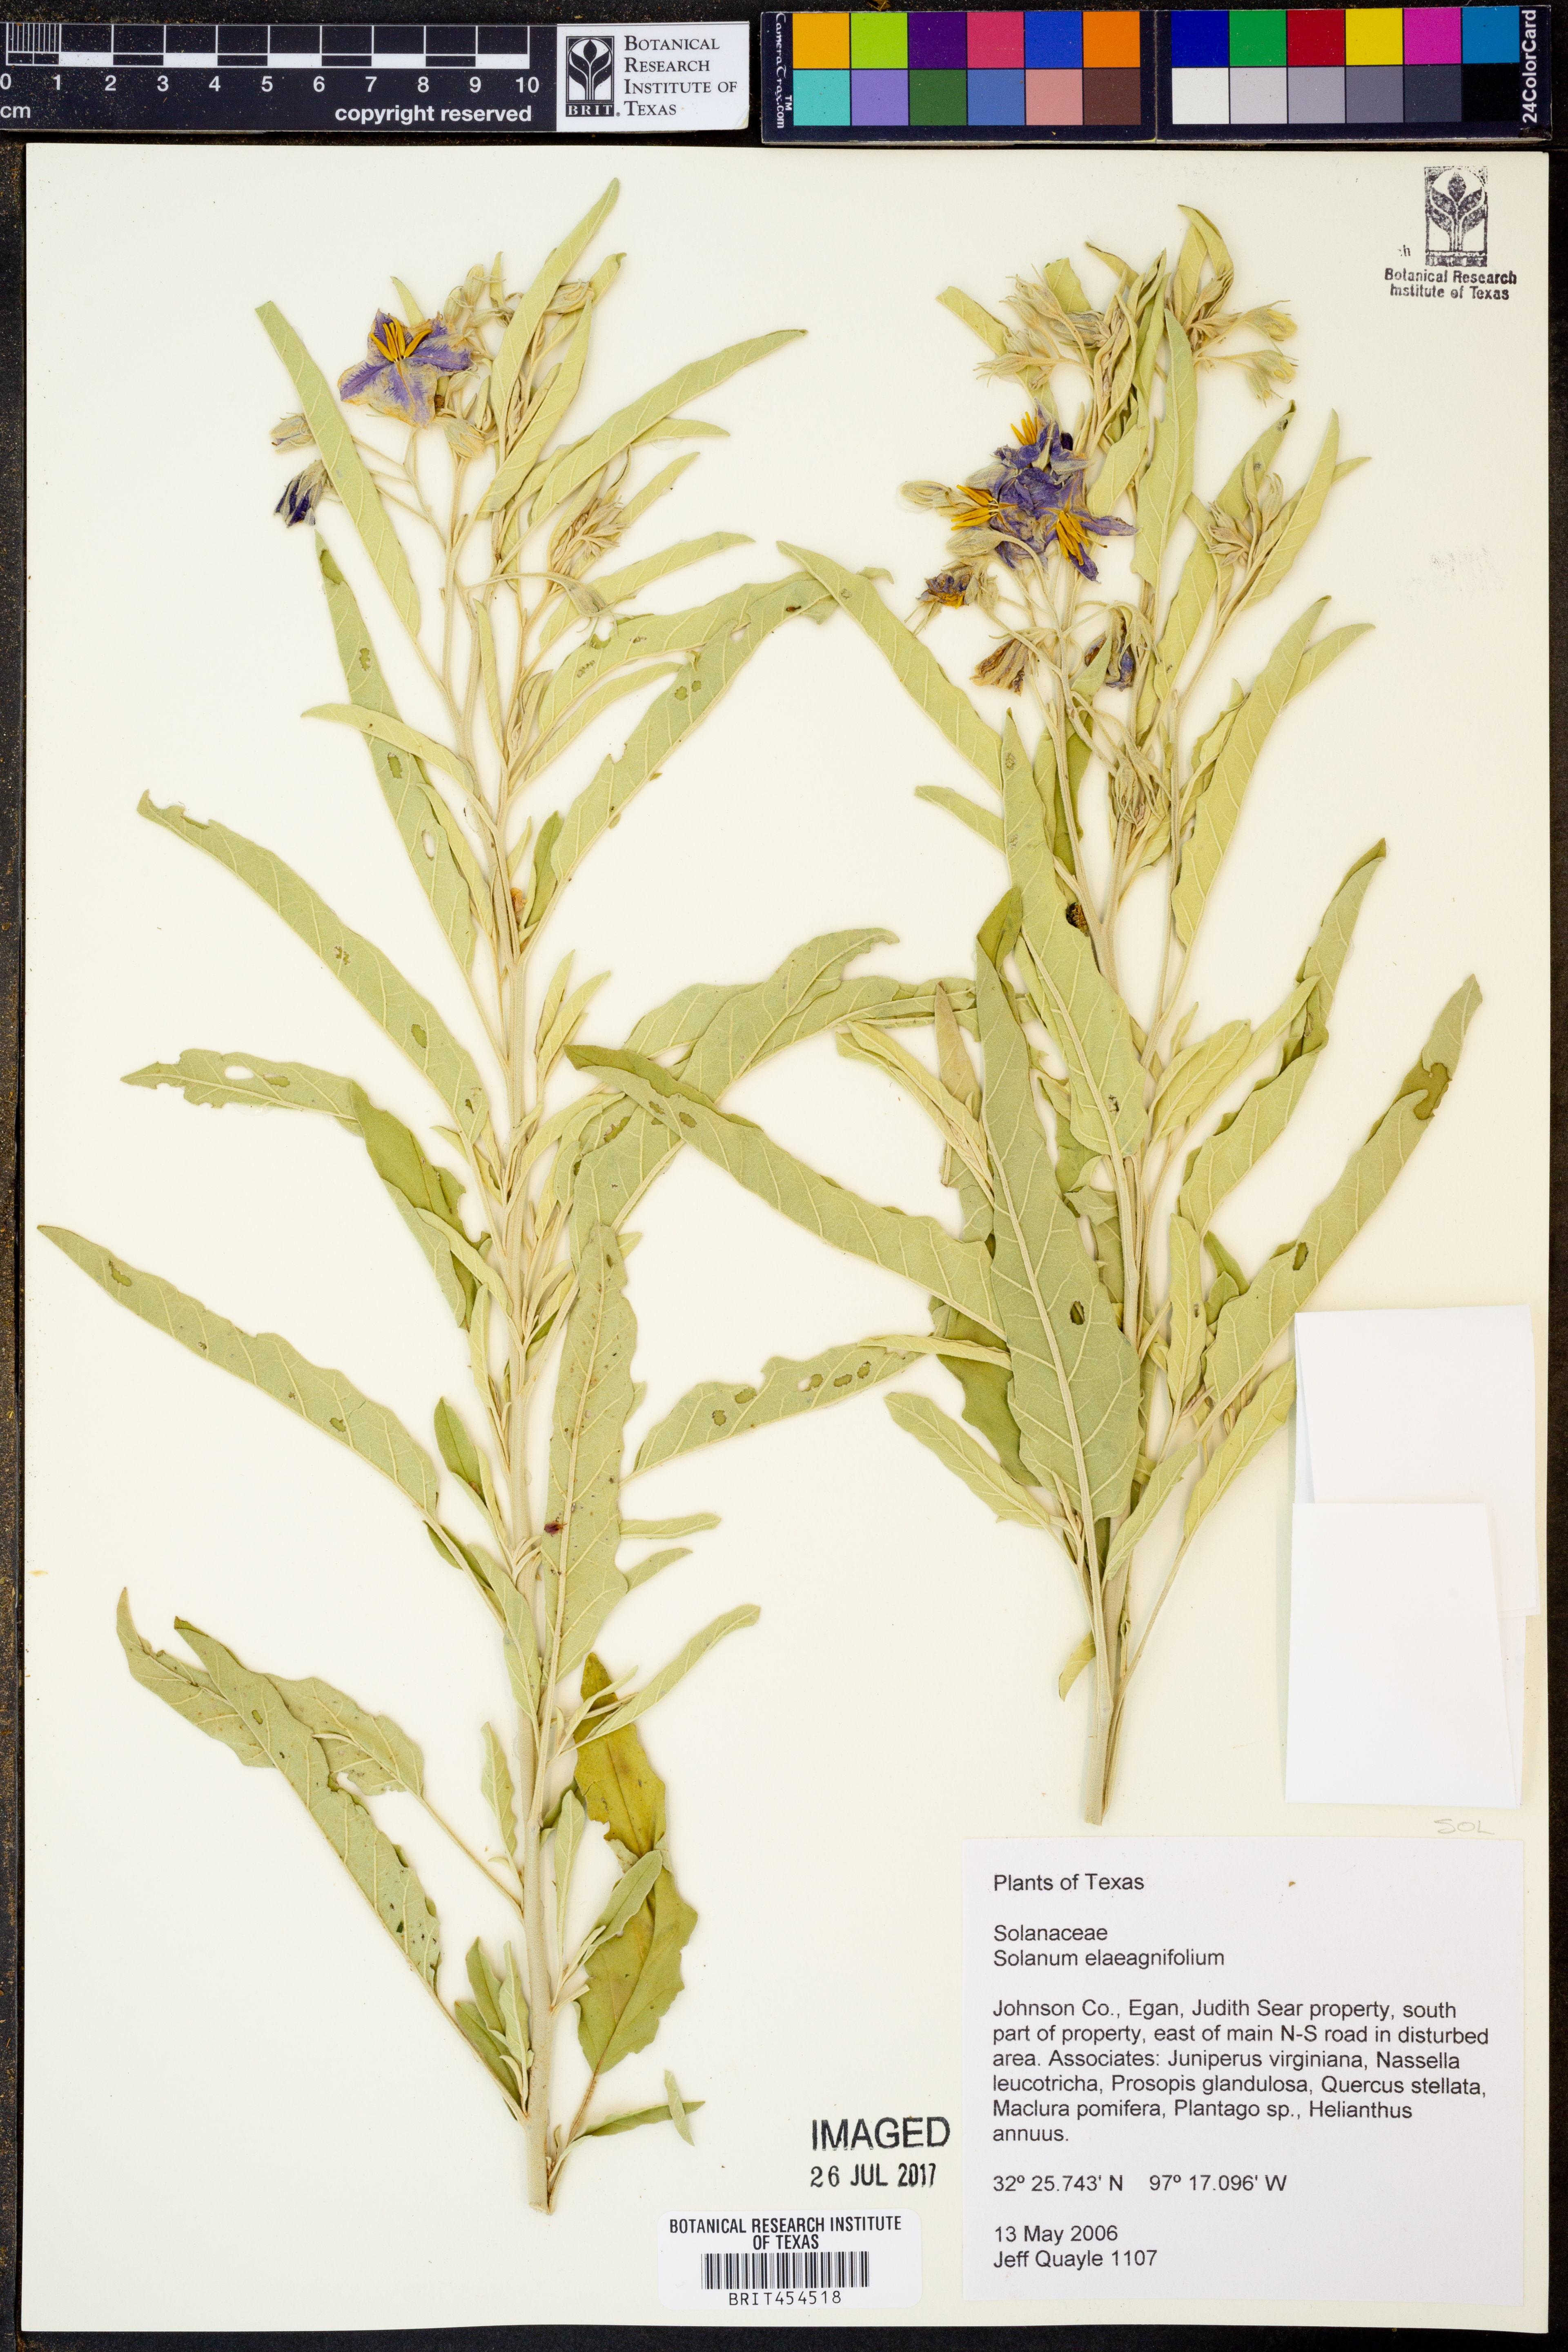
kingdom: Plantae
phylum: Tracheophyta
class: Magnoliopsida
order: Solanales
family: Solanaceae
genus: Solanum
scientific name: Solanum elaeagnifolium
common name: Silverleaf nightshade
